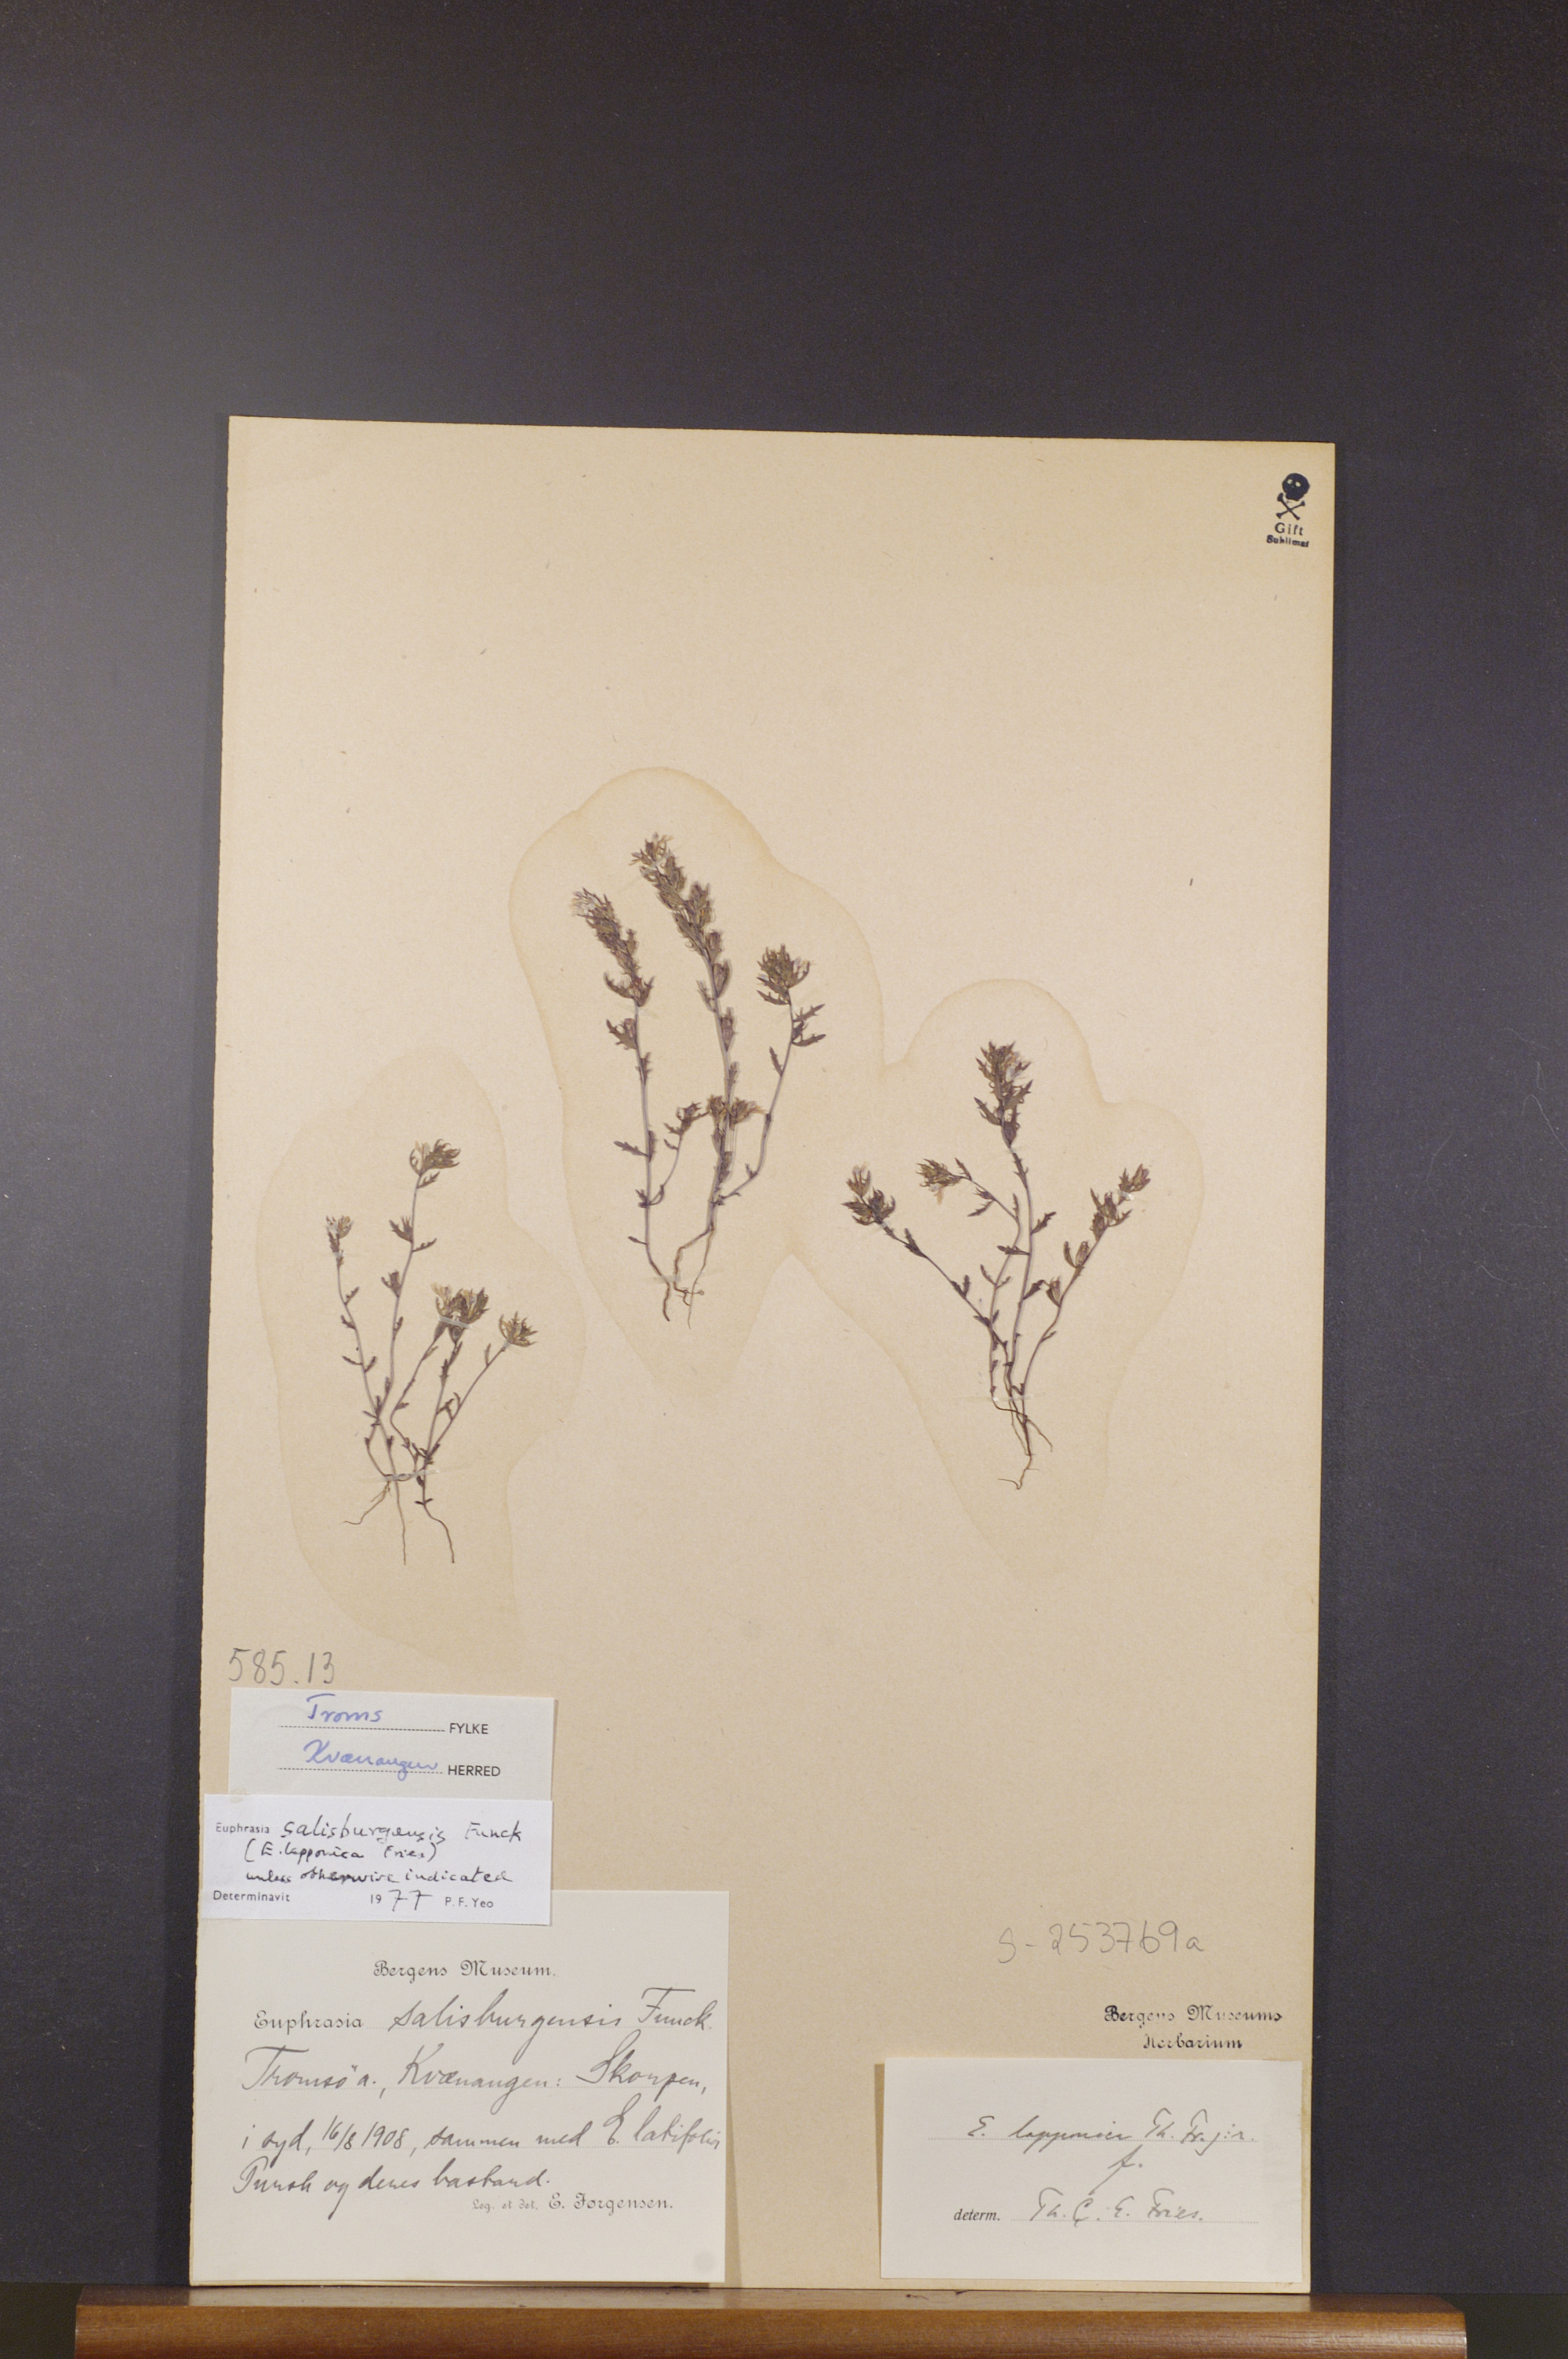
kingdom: Plantae
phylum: Tracheophyta
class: Magnoliopsida
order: Lamiales
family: Orobanchaceae
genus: Euphrasia
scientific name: Euphrasia salisburgensis
